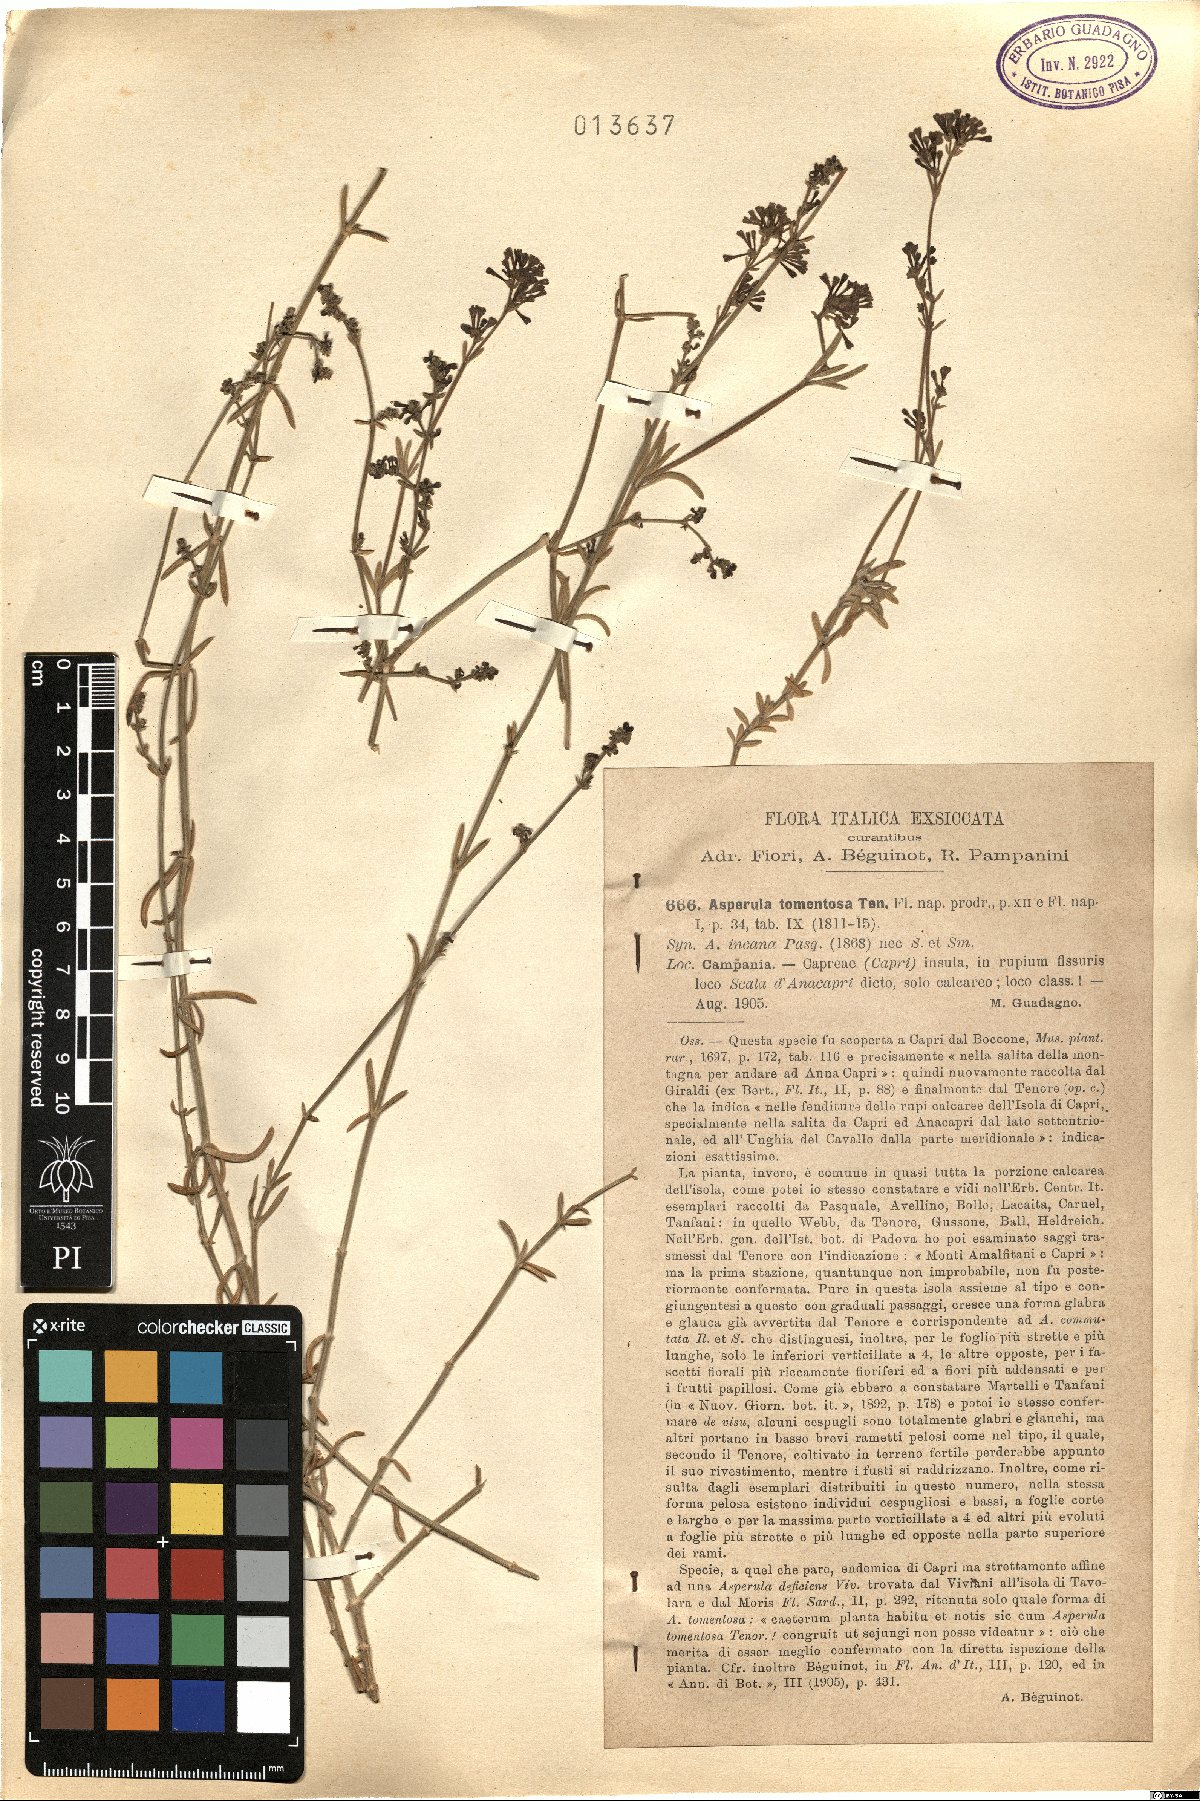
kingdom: Plantae
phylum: Tracheophyta
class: Magnoliopsida
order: Gentianales
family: Rubiaceae
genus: Cynanchica
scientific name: Cynanchica crassifolia
